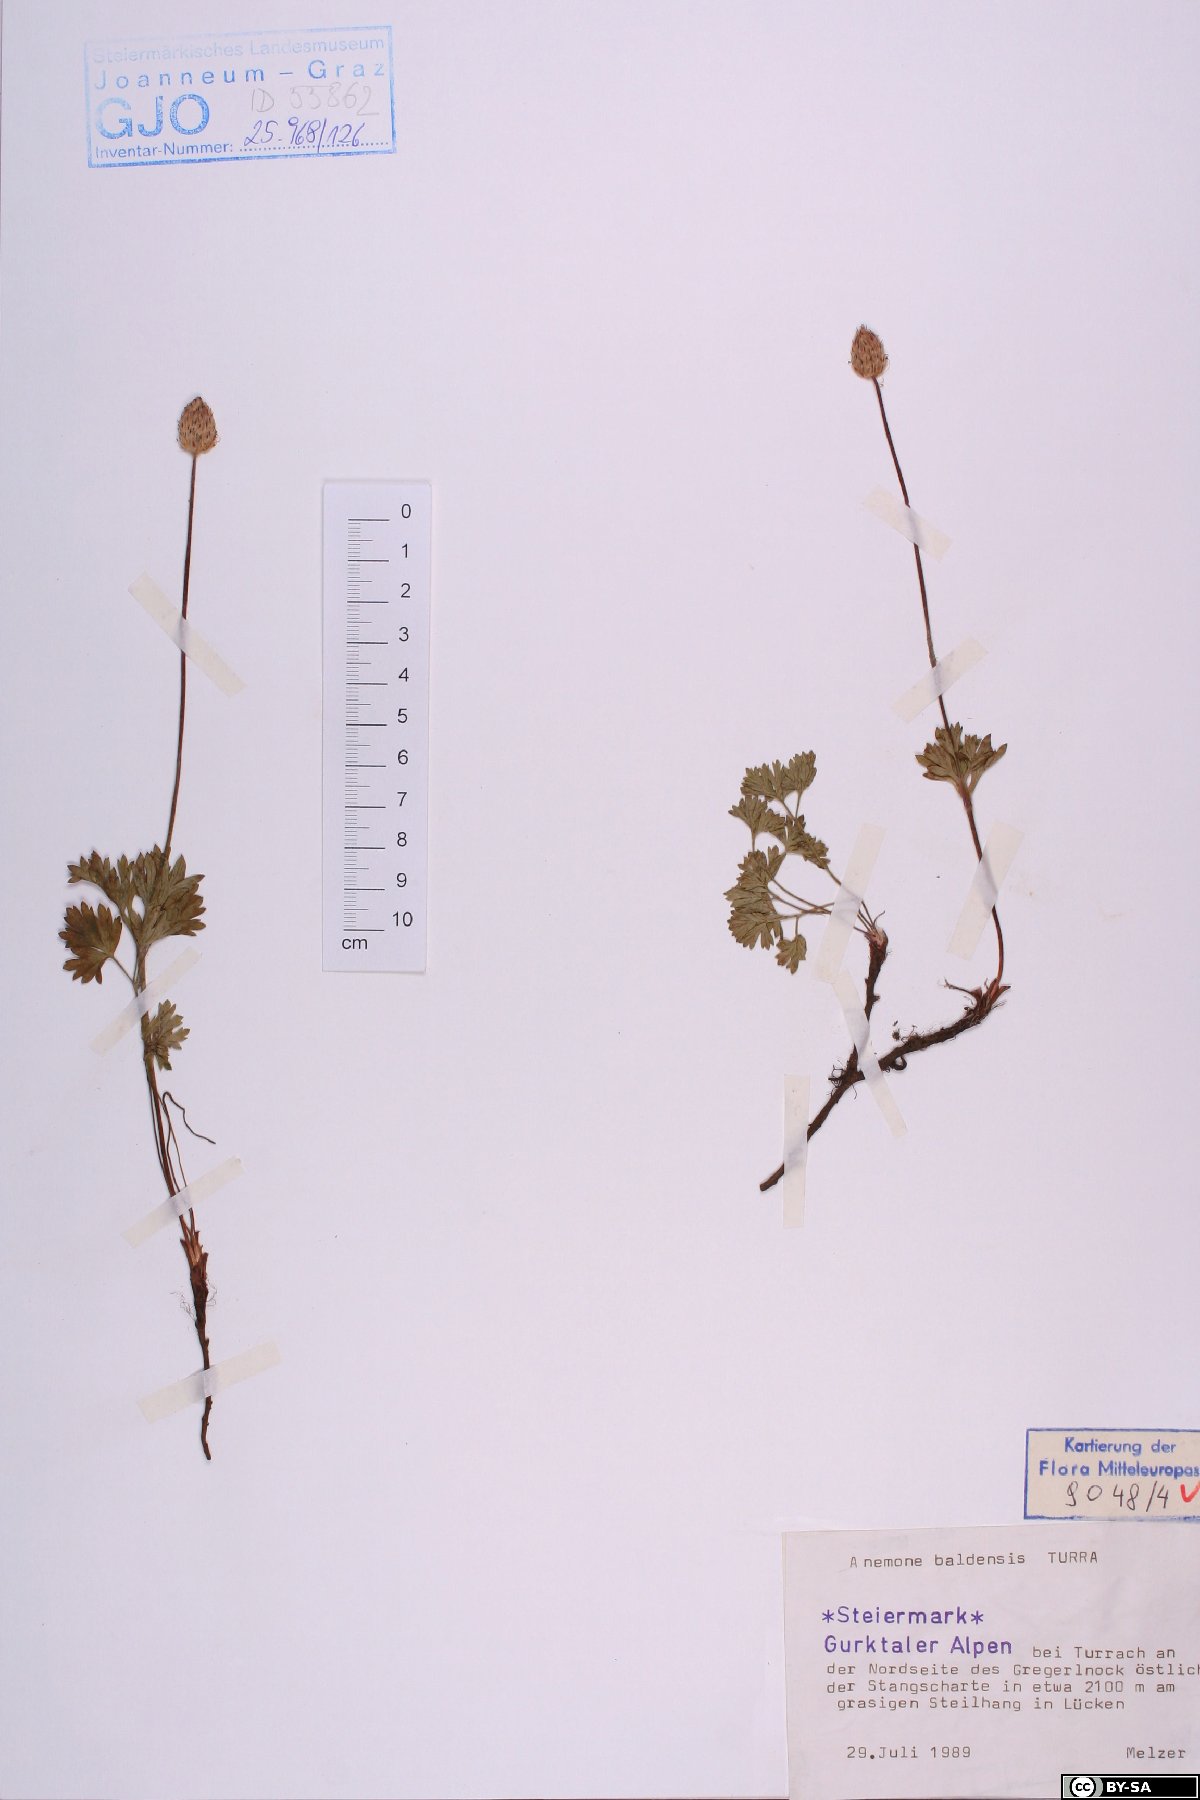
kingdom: Plantae
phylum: Tracheophyta
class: Magnoliopsida
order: Ranunculales
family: Ranunculaceae
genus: Anemone
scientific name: Anemone baldensis
